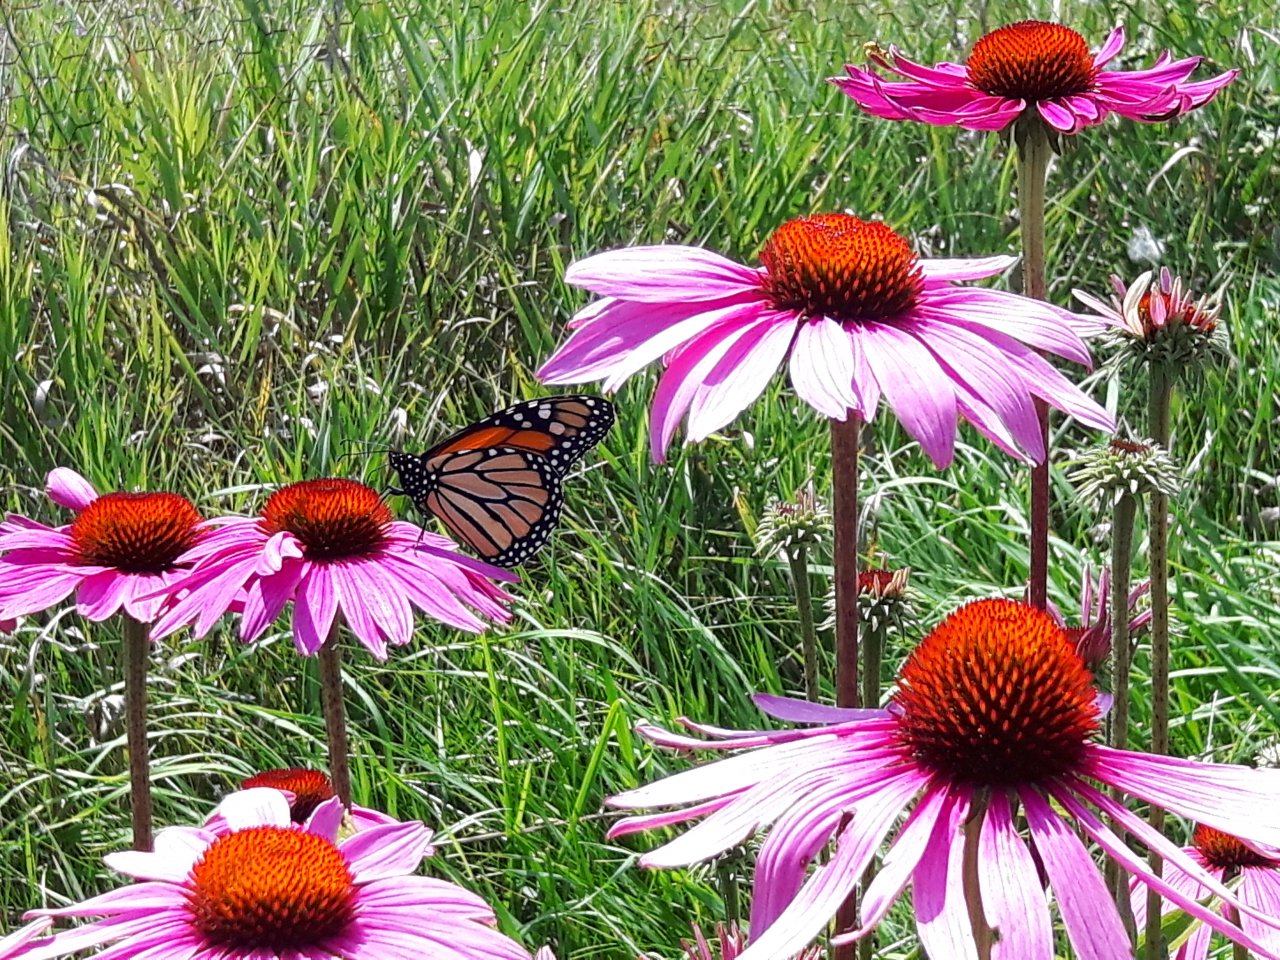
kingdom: Animalia
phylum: Arthropoda
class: Insecta
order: Lepidoptera
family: Nymphalidae
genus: Danaus
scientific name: Danaus plexippus
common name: Monarch
